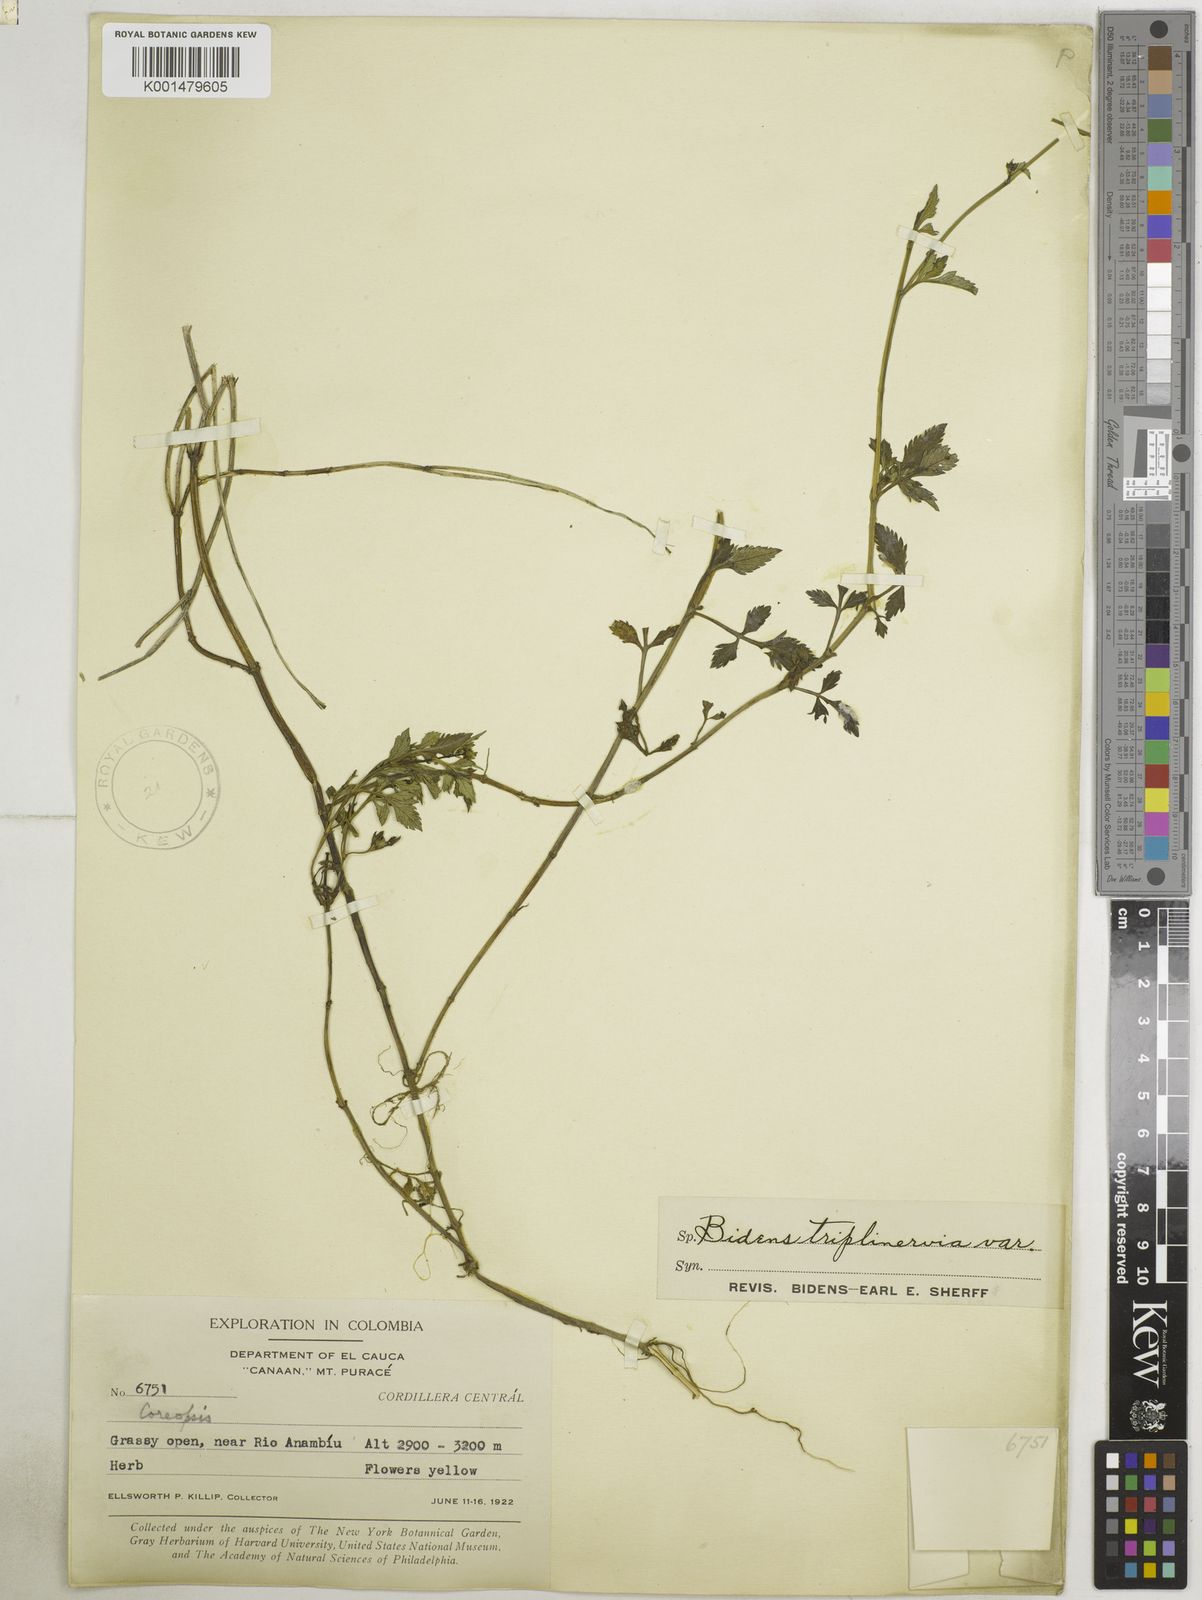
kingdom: Plantae
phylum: Tracheophyta
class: Magnoliopsida
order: Asterales
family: Asteraceae
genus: Bidens
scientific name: Bidens triplinervia
